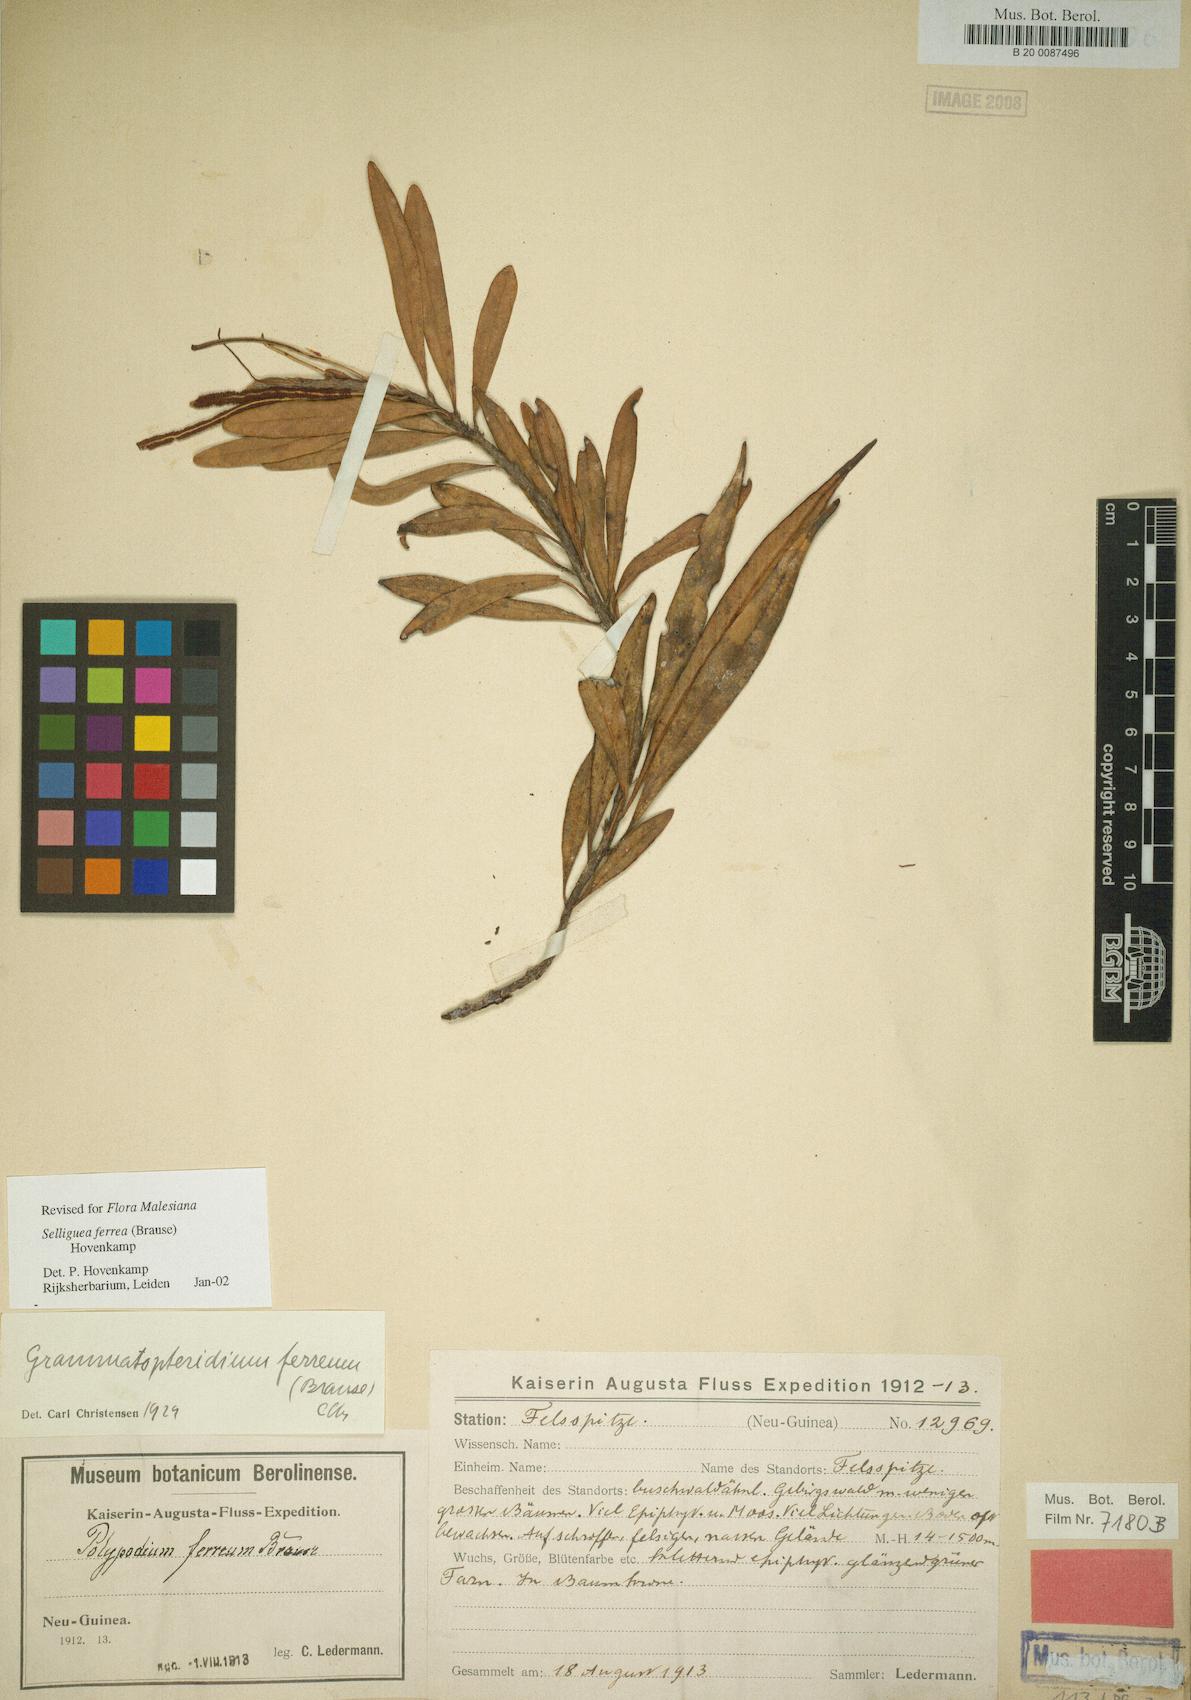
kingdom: Plantae
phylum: Tracheophyta
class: Polypodiopsida
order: Polypodiales
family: Polypodiaceae
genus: Selliguea
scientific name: Selliguea ferrea
